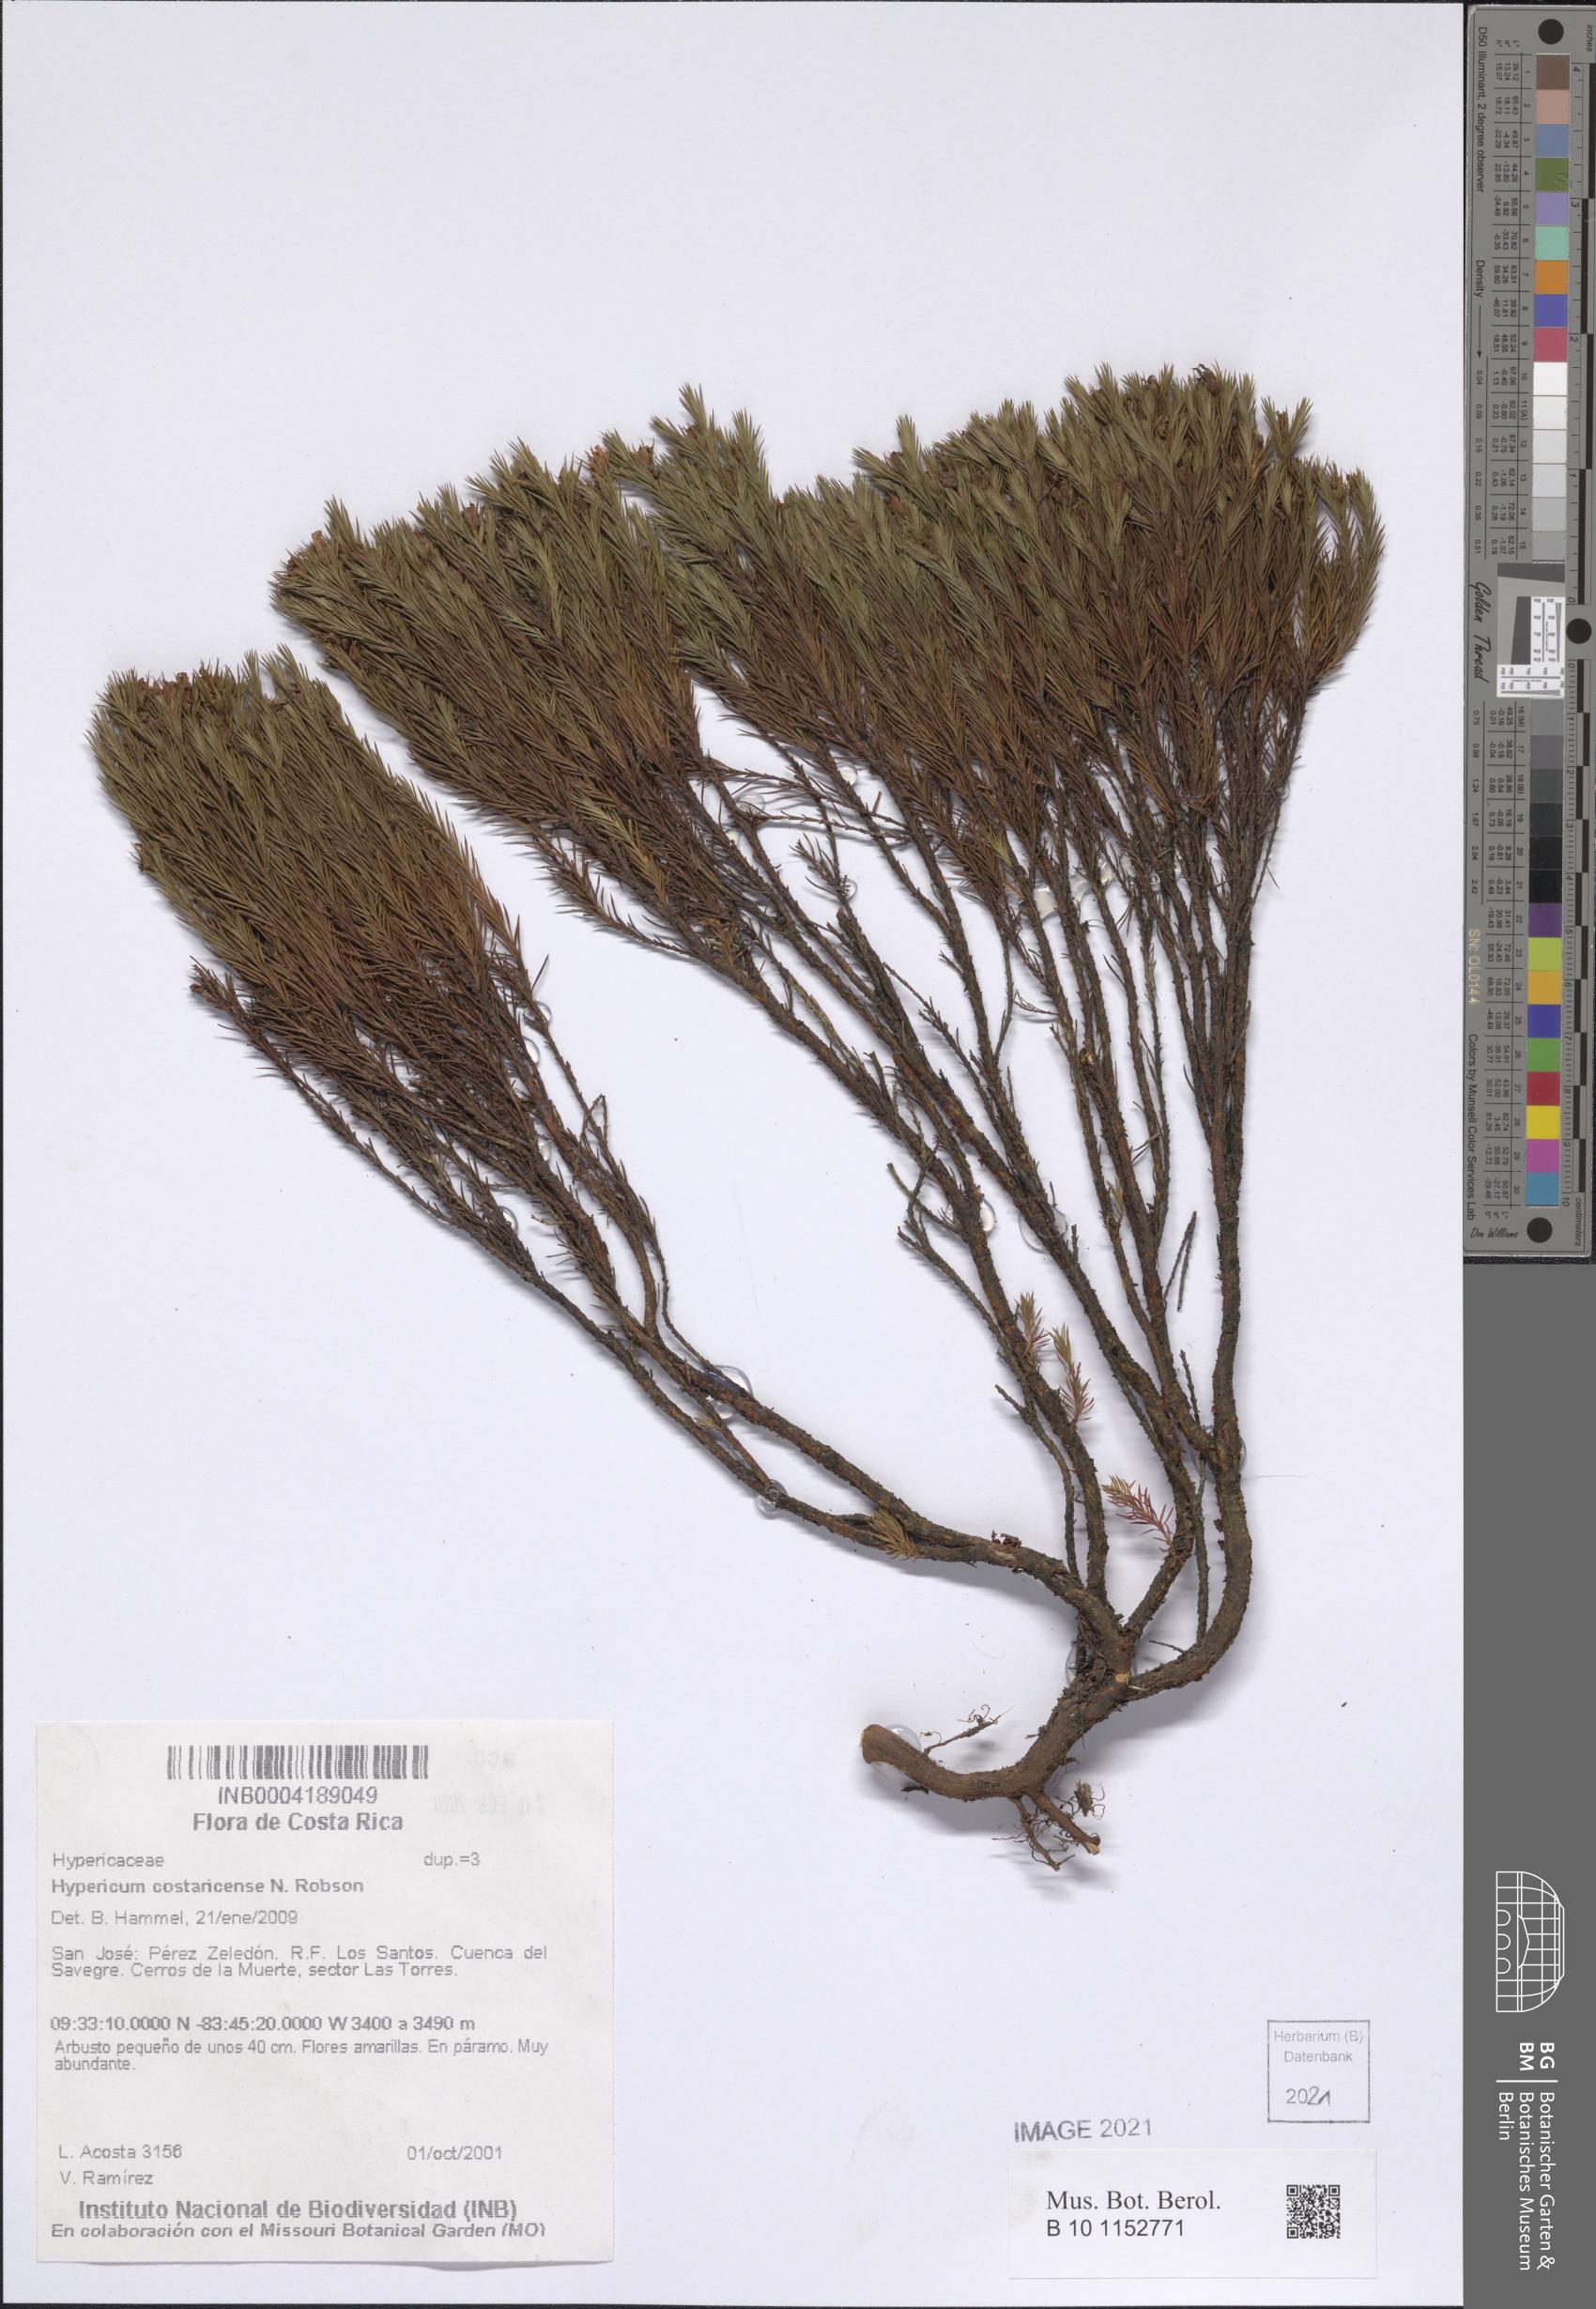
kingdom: Plantae
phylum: Tracheophyta
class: Magnoliopsida
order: Malpighiales
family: Hypericaceae
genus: Hypericum
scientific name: Hypericum costaricense
